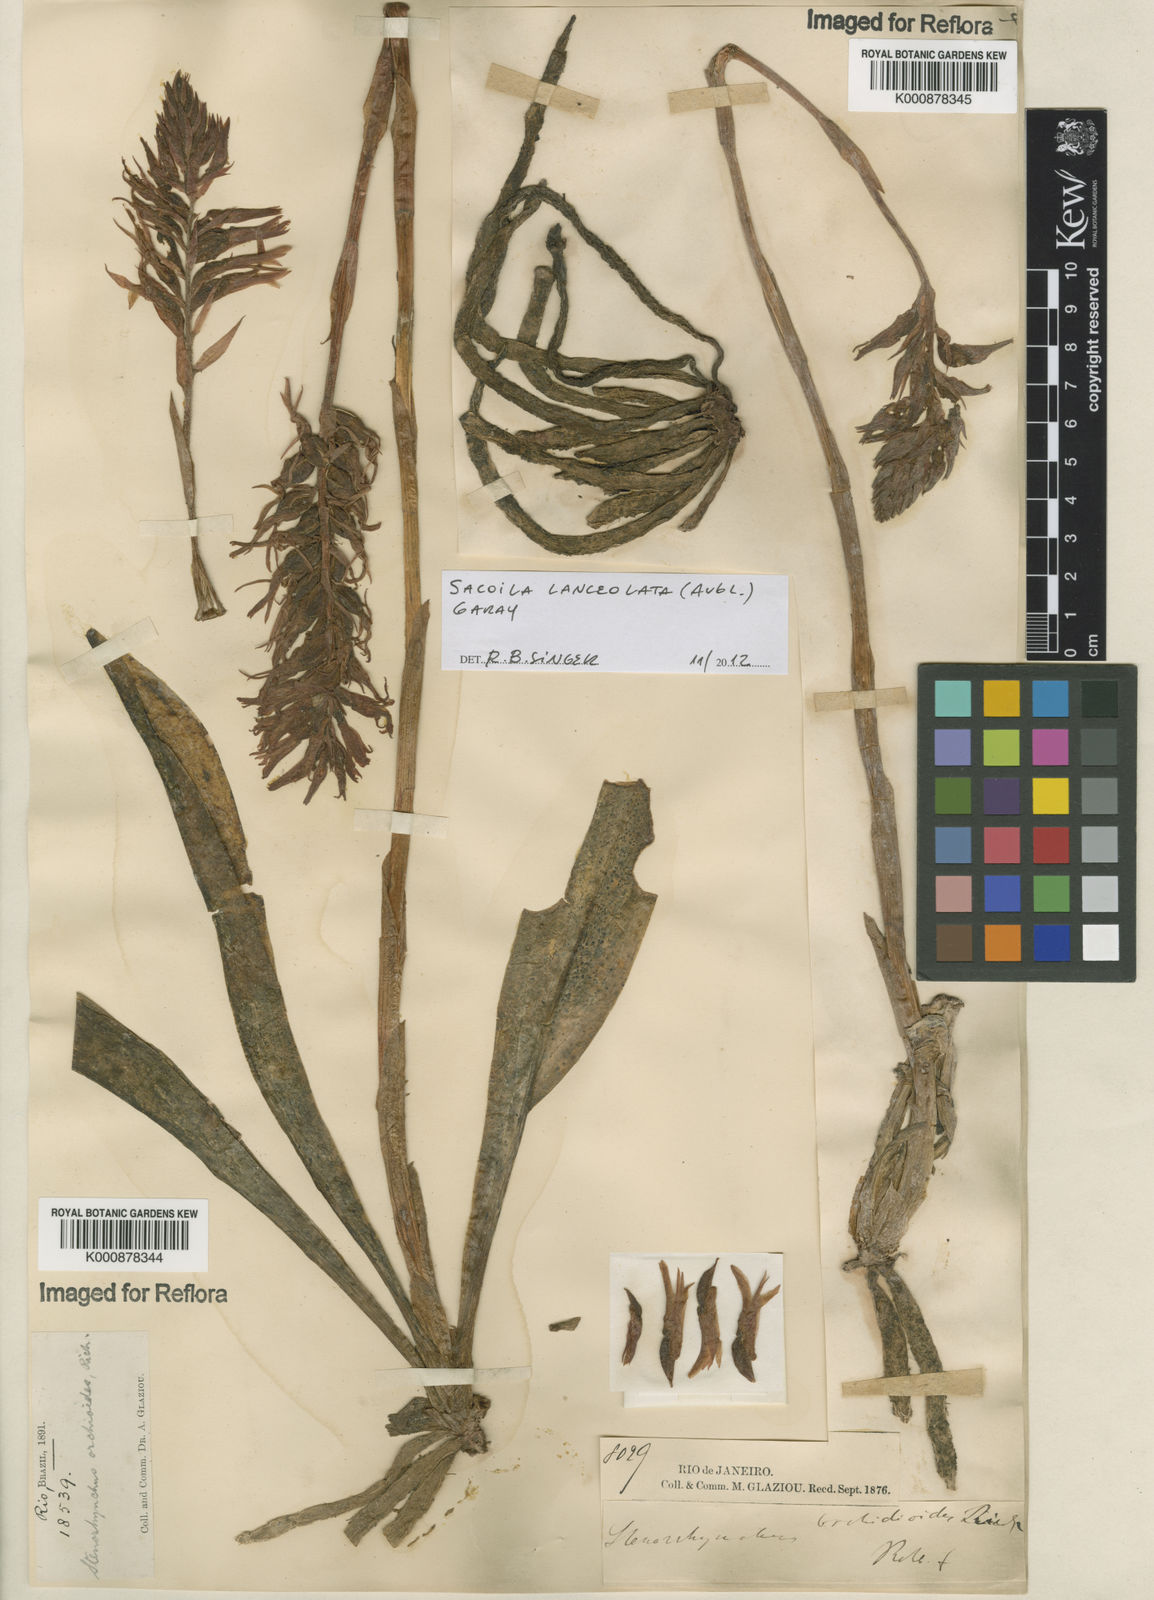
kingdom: Plantae
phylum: Tracheophyta
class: Liliopsida
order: Asparagales
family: Orchidaceae
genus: Sacoila
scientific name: Sacoila lanceolata
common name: Leafless beaked ladiestresses
